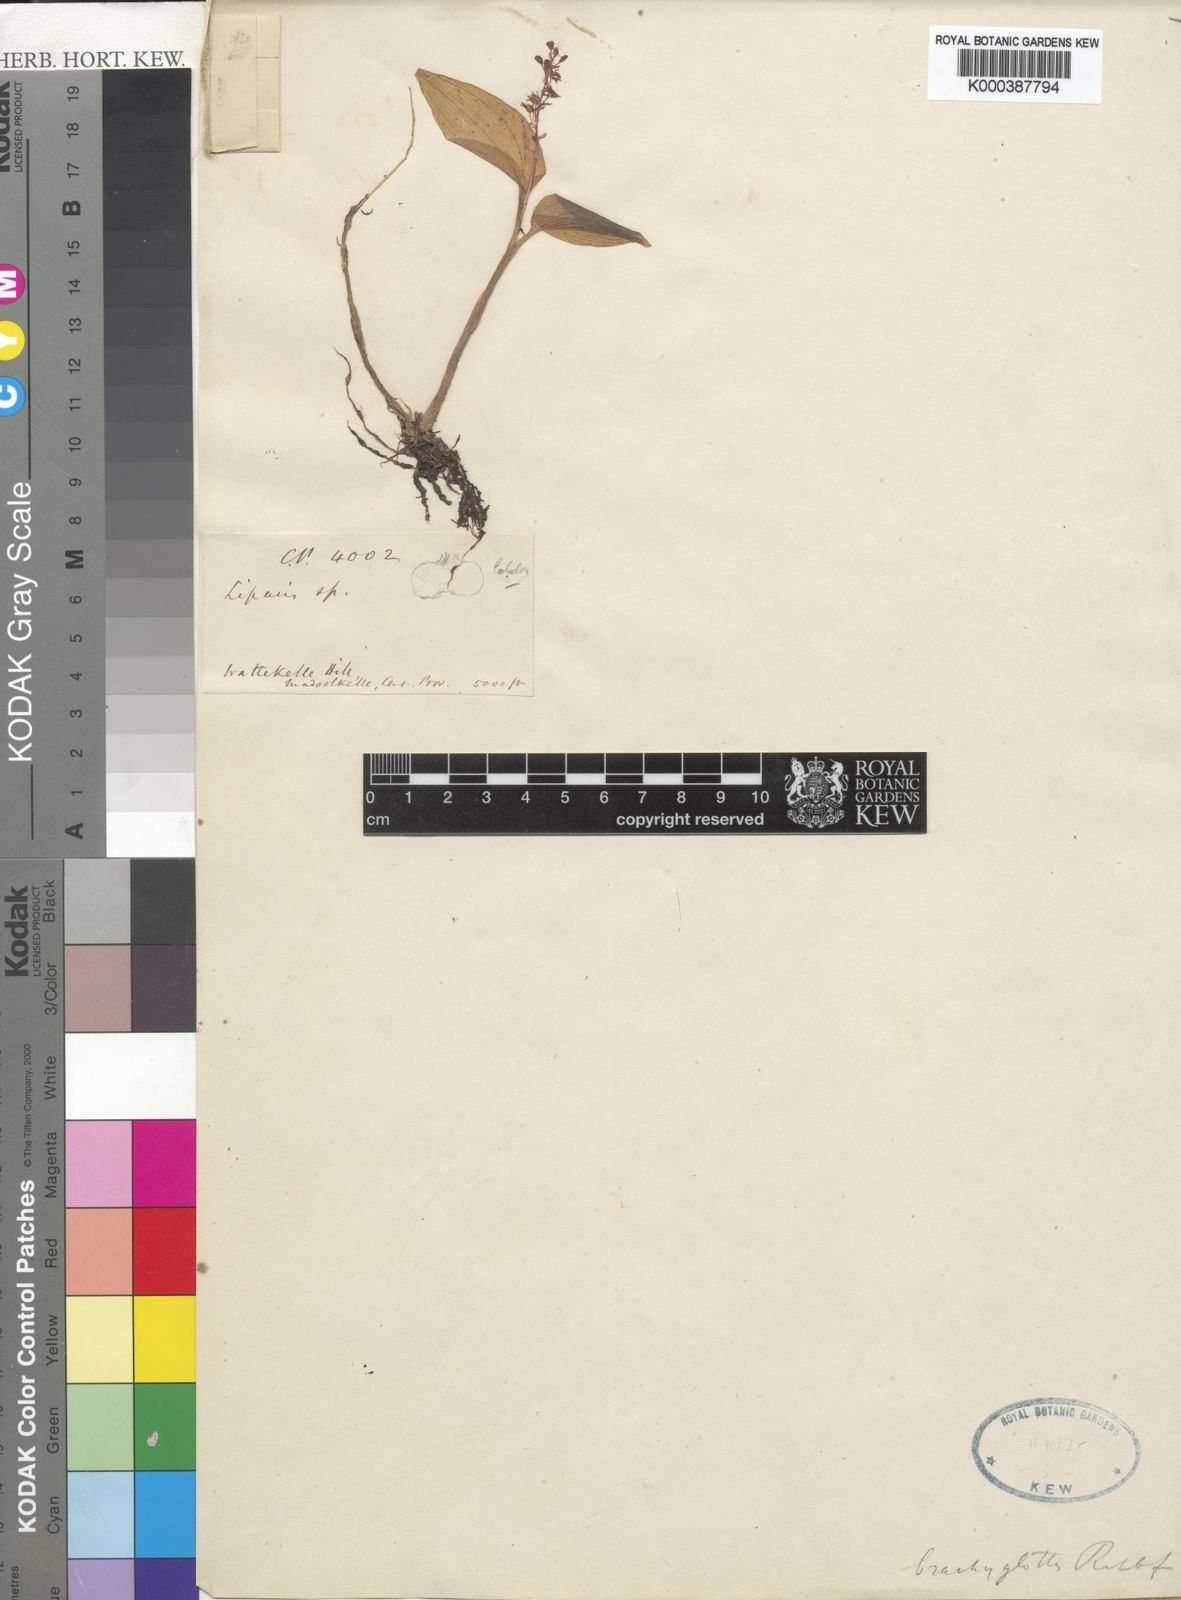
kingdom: Plantae
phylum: Tracheophyta
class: Liliopsida
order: Asparagales
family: Orchidaceae
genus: Liparis
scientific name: Liparis brachyglottis
